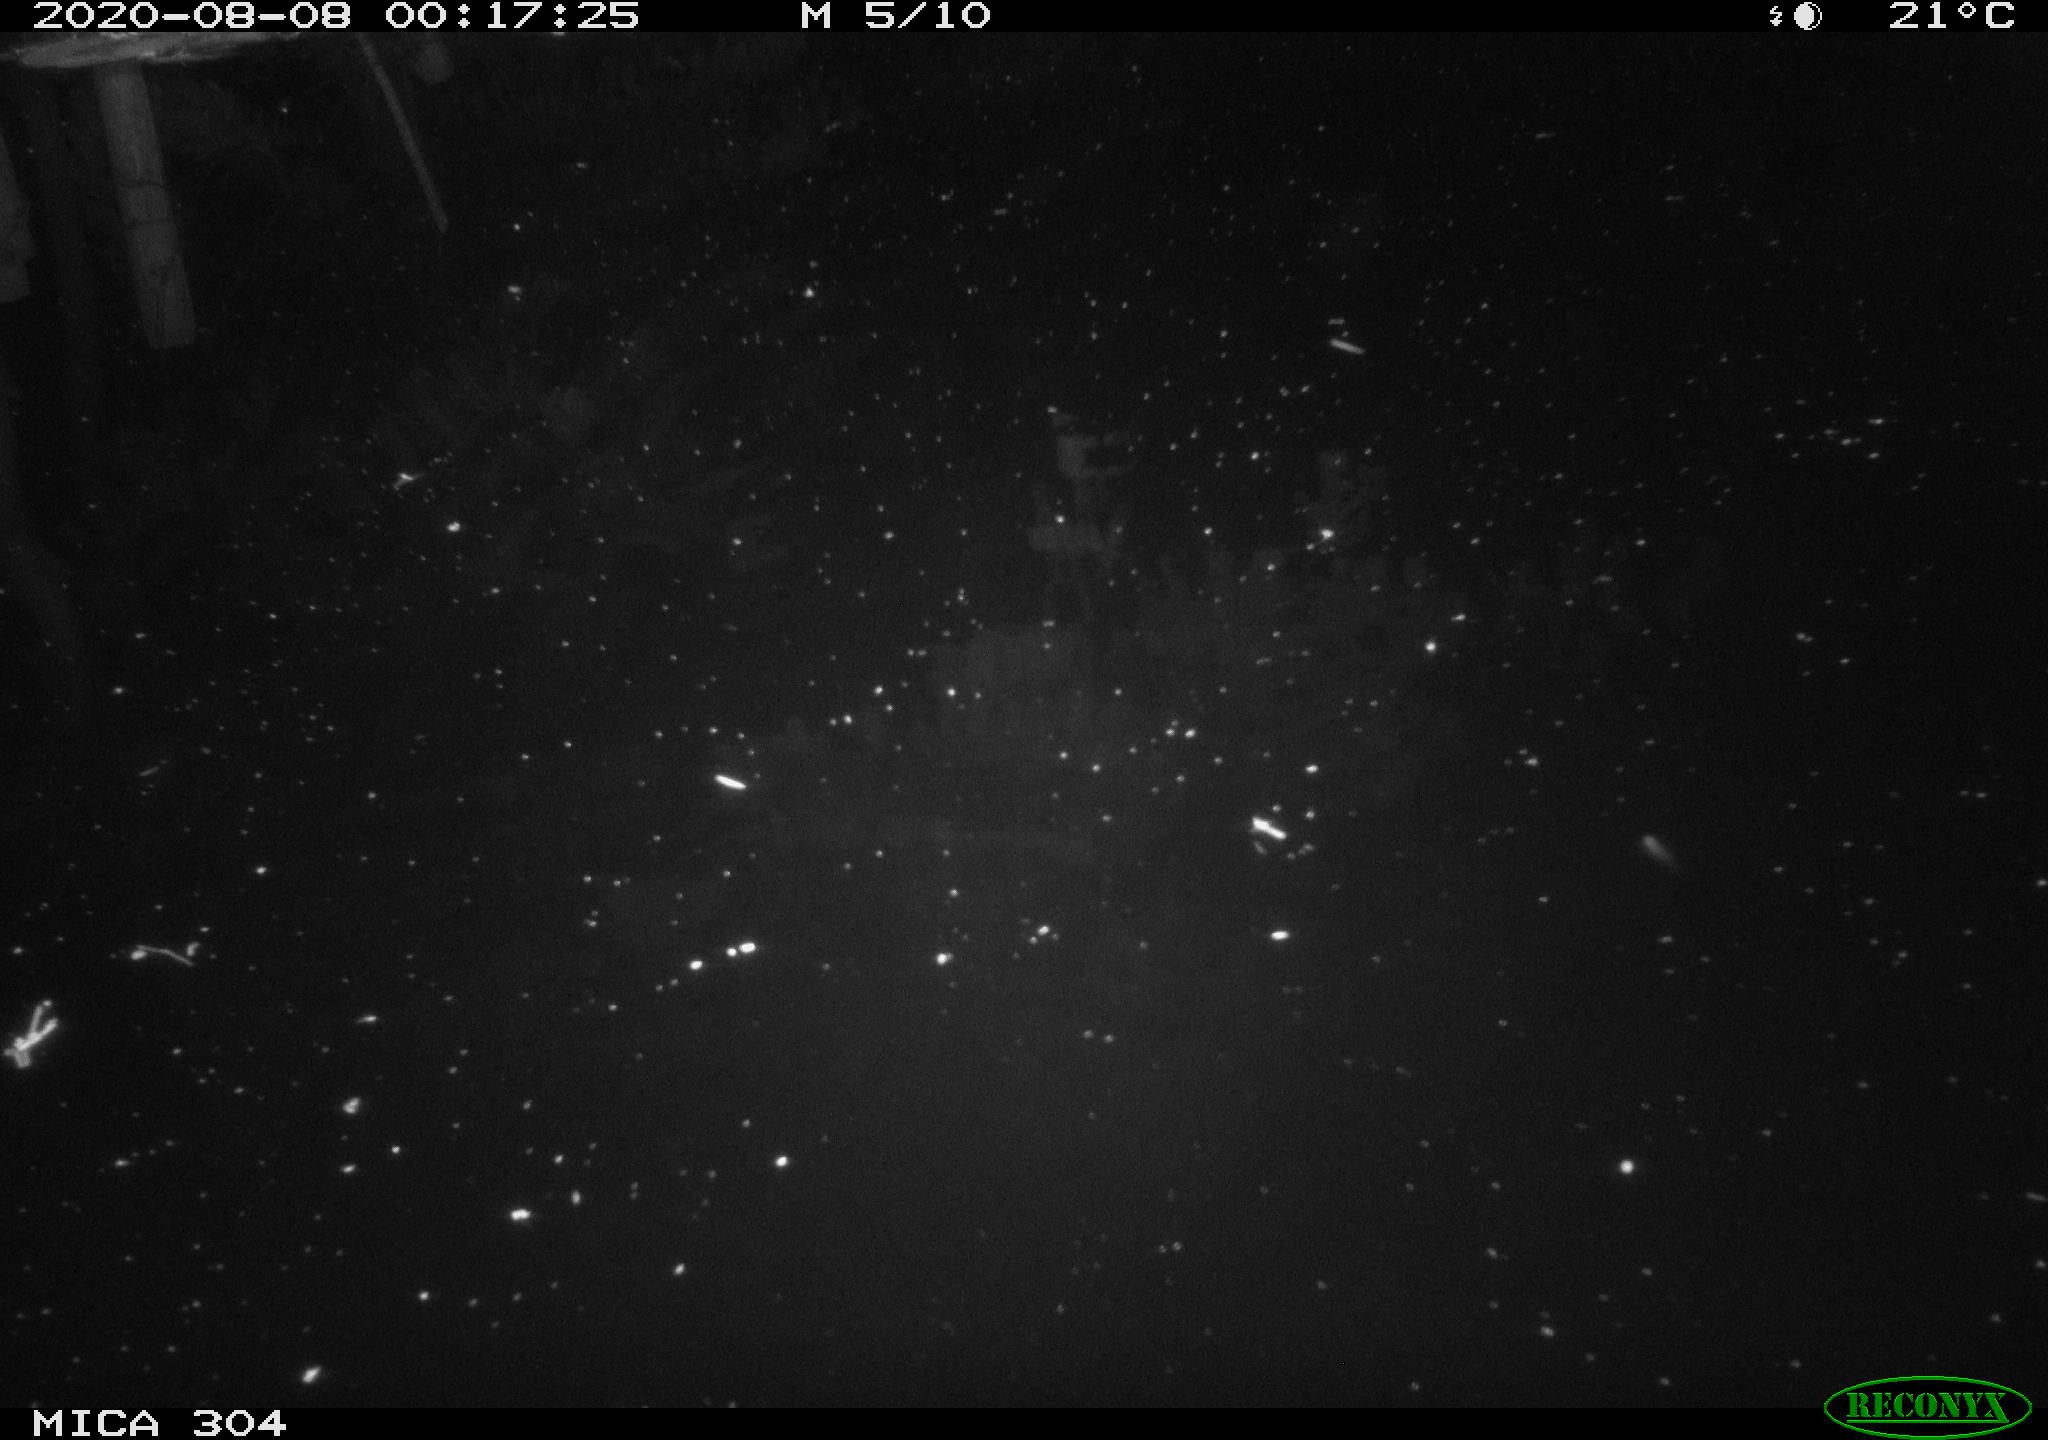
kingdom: Animalia
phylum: Chordata
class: Mammalia
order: Rodentia
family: Muridae
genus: Rattus
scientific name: Rattus norvegicus
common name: Brown rat
